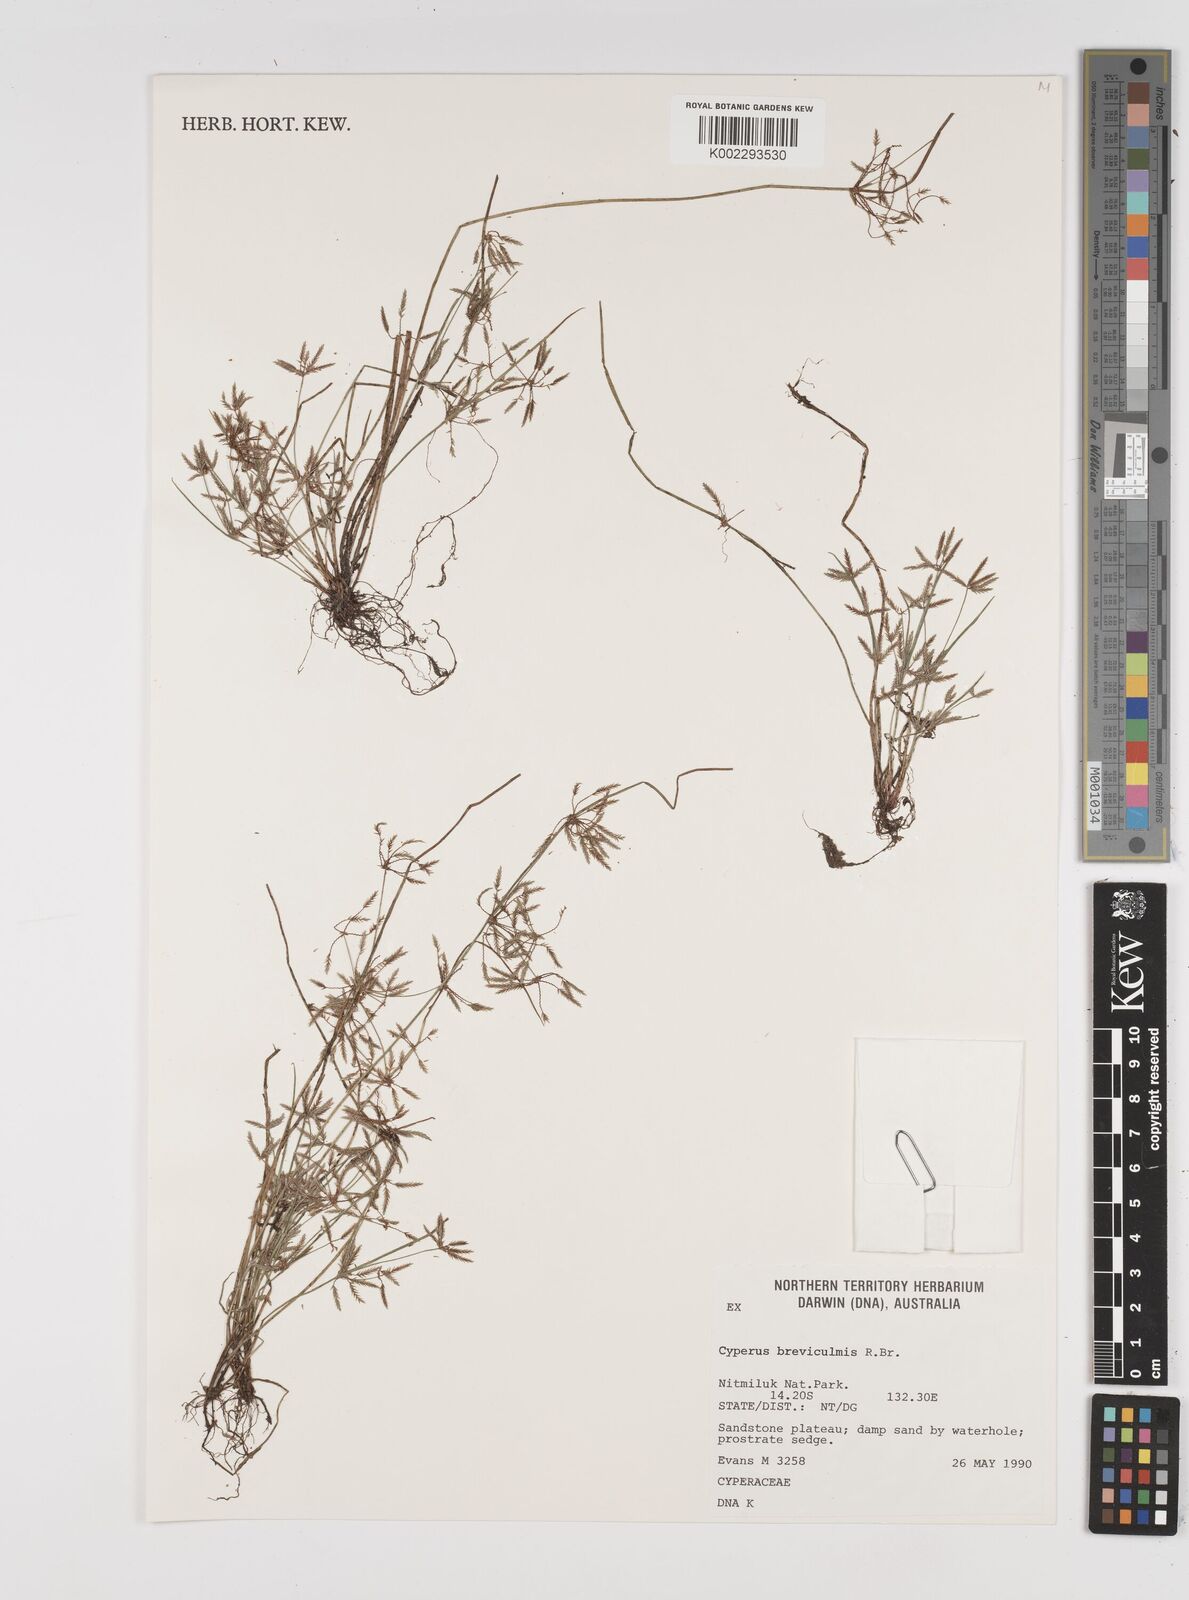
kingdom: Plantae
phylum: Tracheophyta
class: Liliopsida
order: Poales
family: Cyperaceae
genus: Cyperus
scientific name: Cyperus breviculmis
